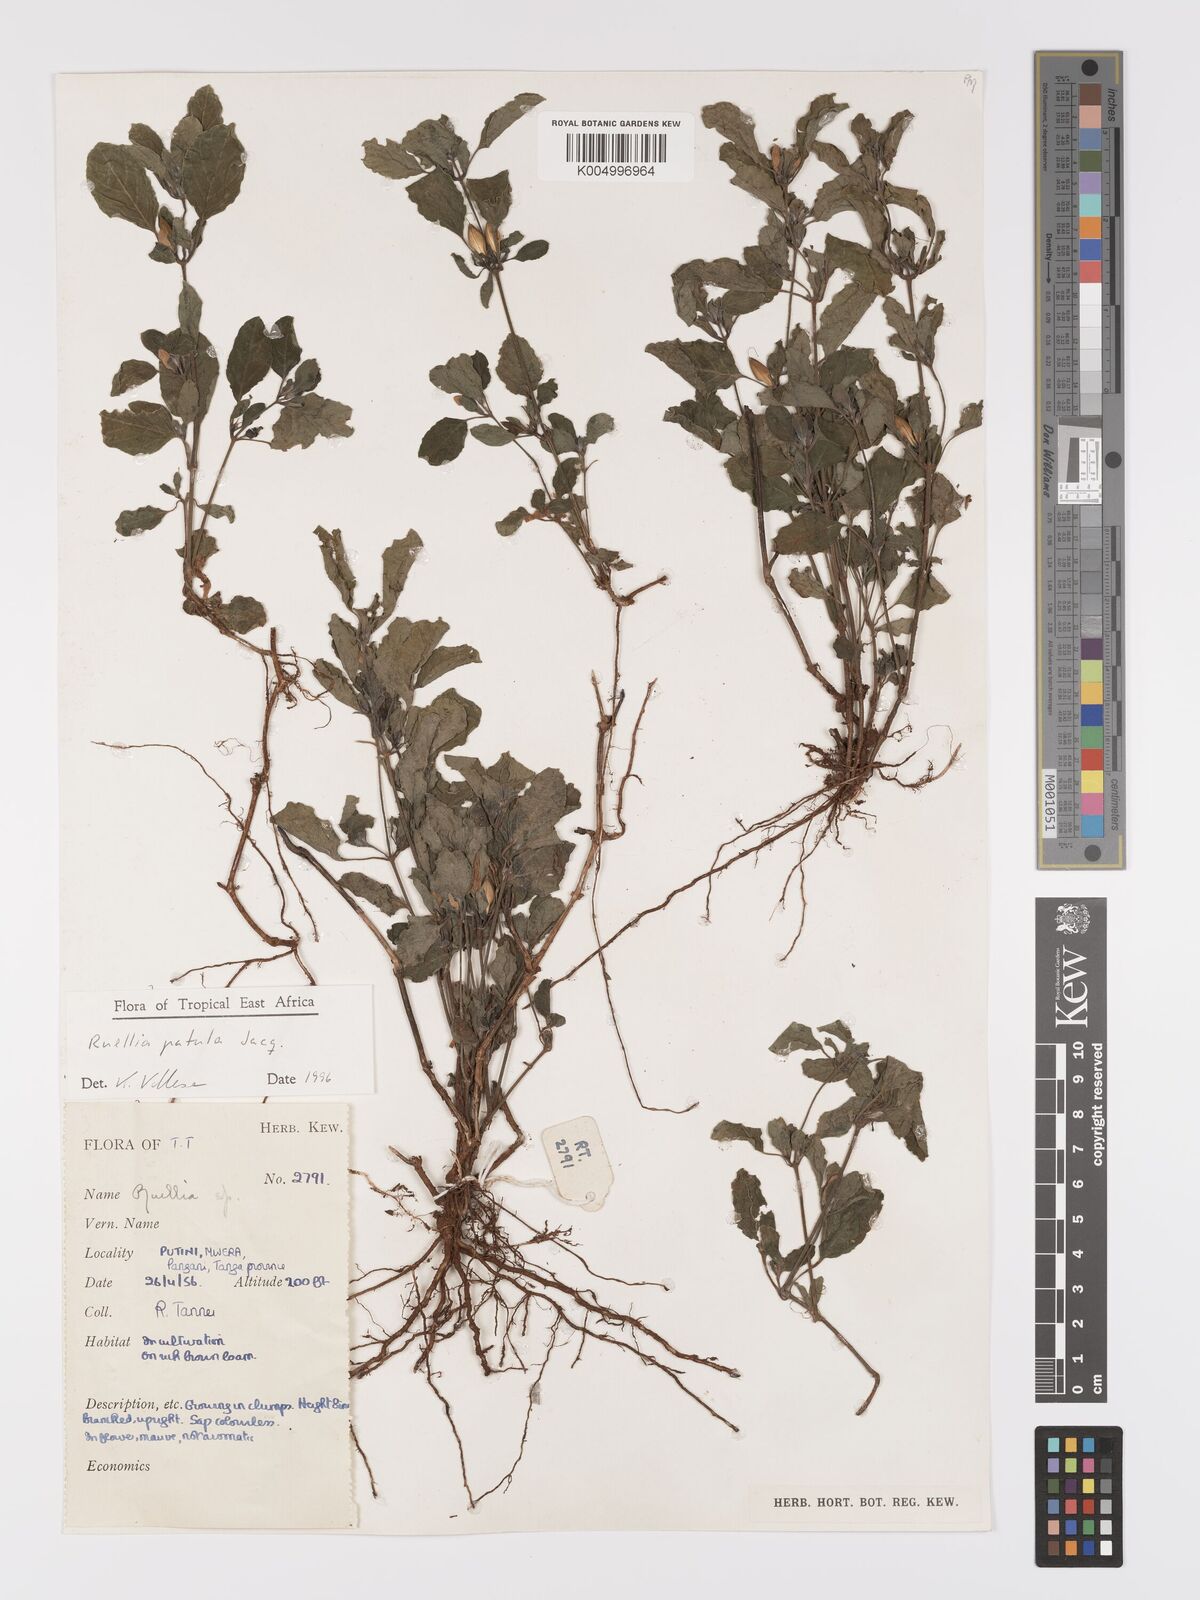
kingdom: Plantae
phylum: Tracheophyta
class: Magnoliopsida
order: Lamiales
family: Acanthaceae
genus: Ruellia
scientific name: Ruellia patula
